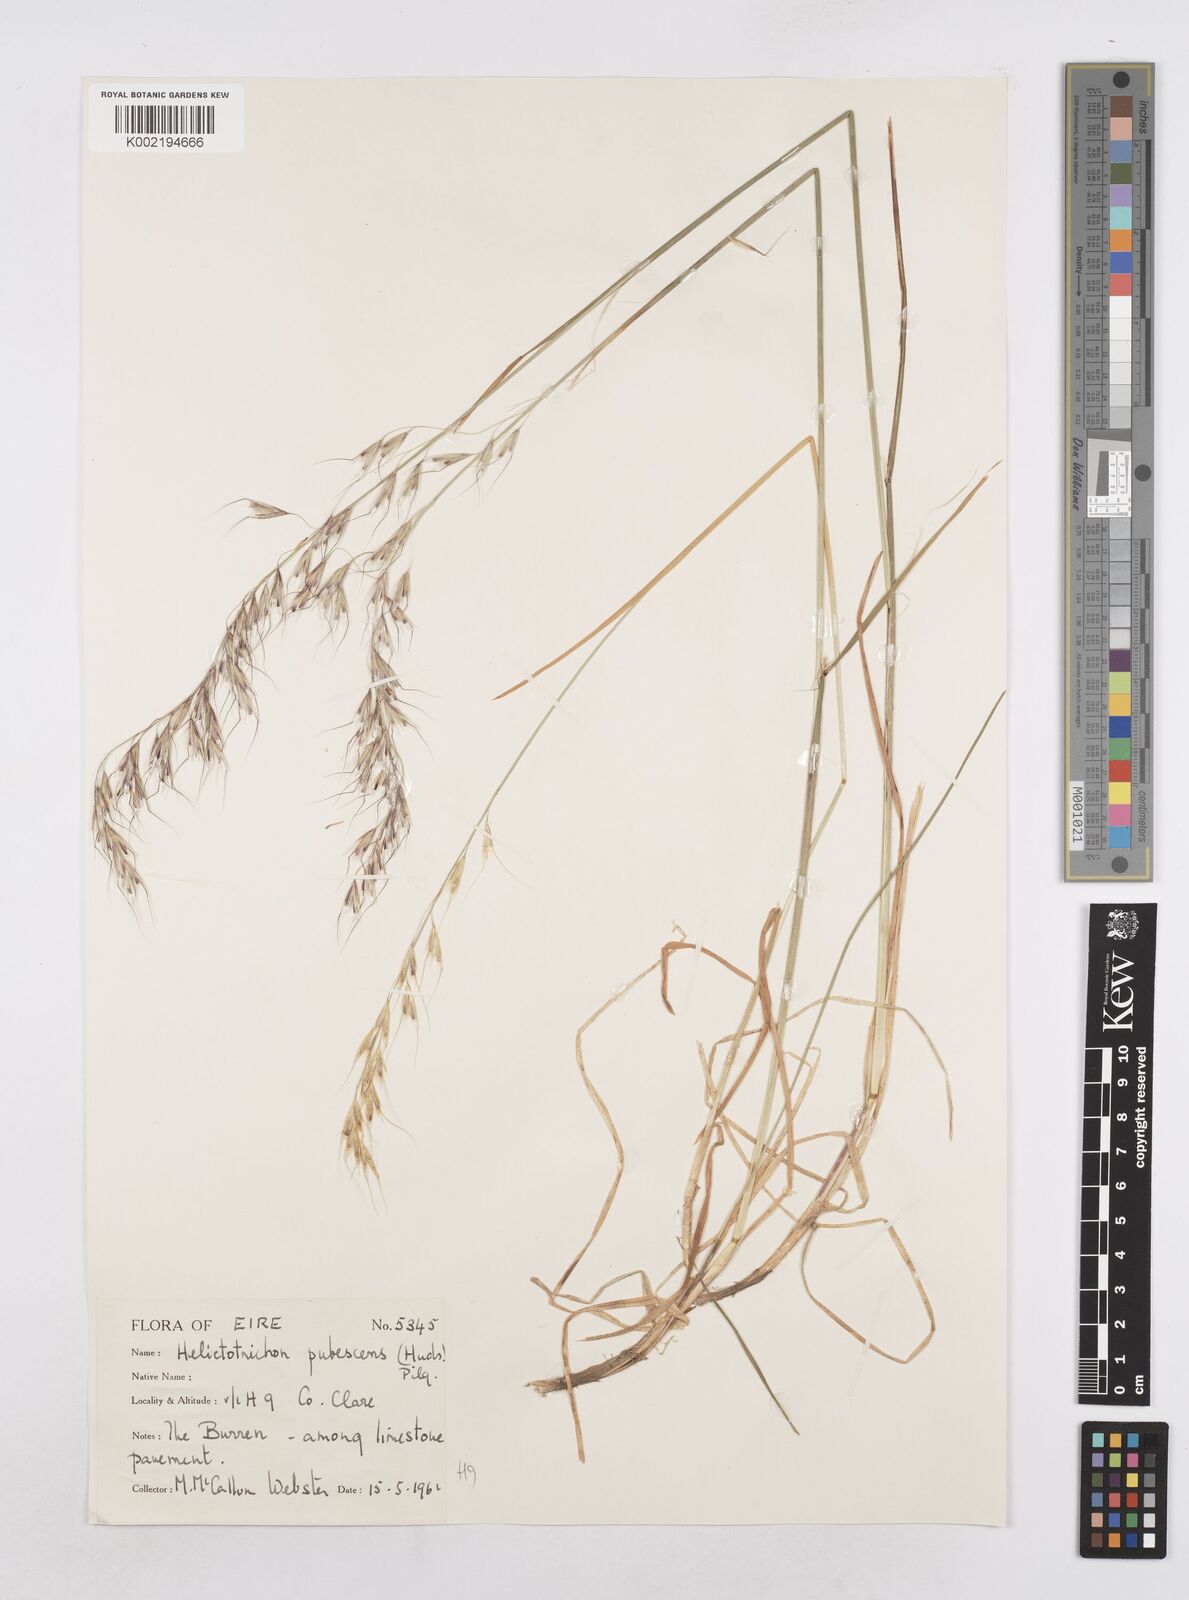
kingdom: Plantae
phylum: Tracheophyta
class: Liliopsida
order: Poales
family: Poaceae
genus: Avenula
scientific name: Avenula pubescens
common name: Downy alpine oatgrass
